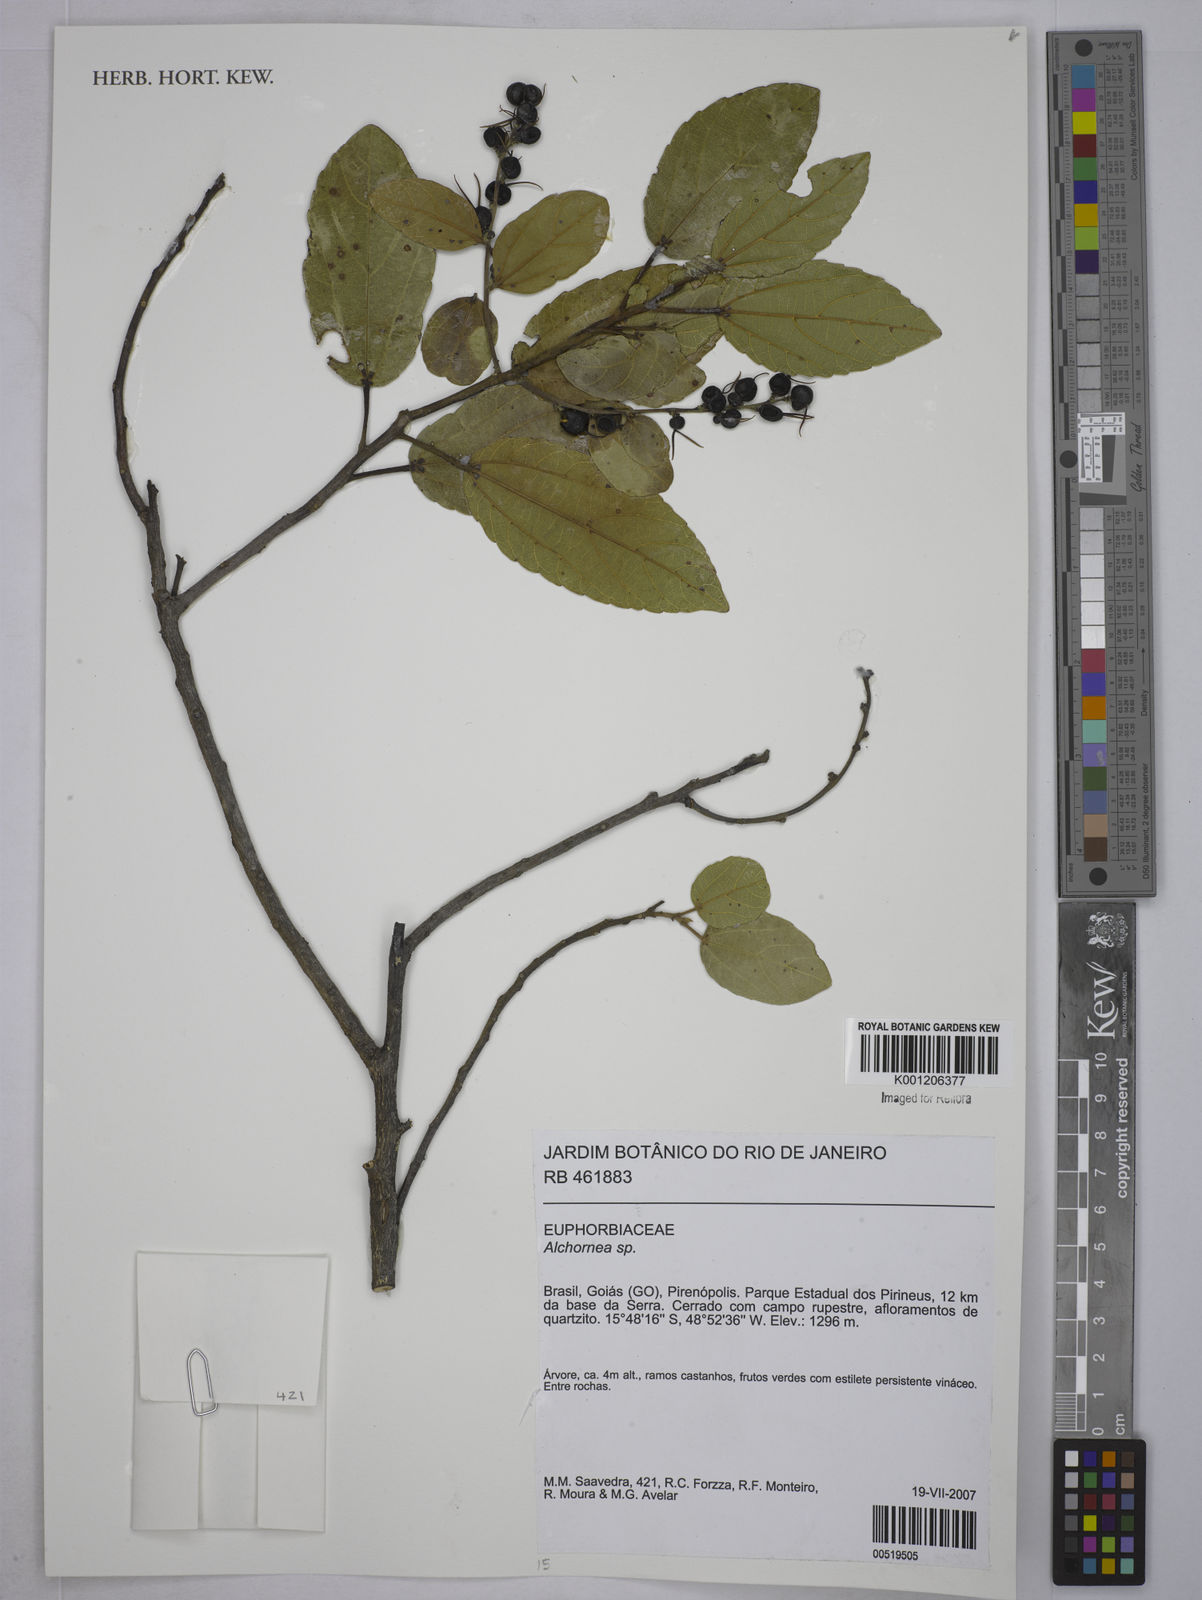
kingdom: Plantae
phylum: Tracheophyta
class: Magnoliopsida
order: Malpighiales
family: Euphorbiaceae
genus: Alchornea
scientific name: Alchornea
